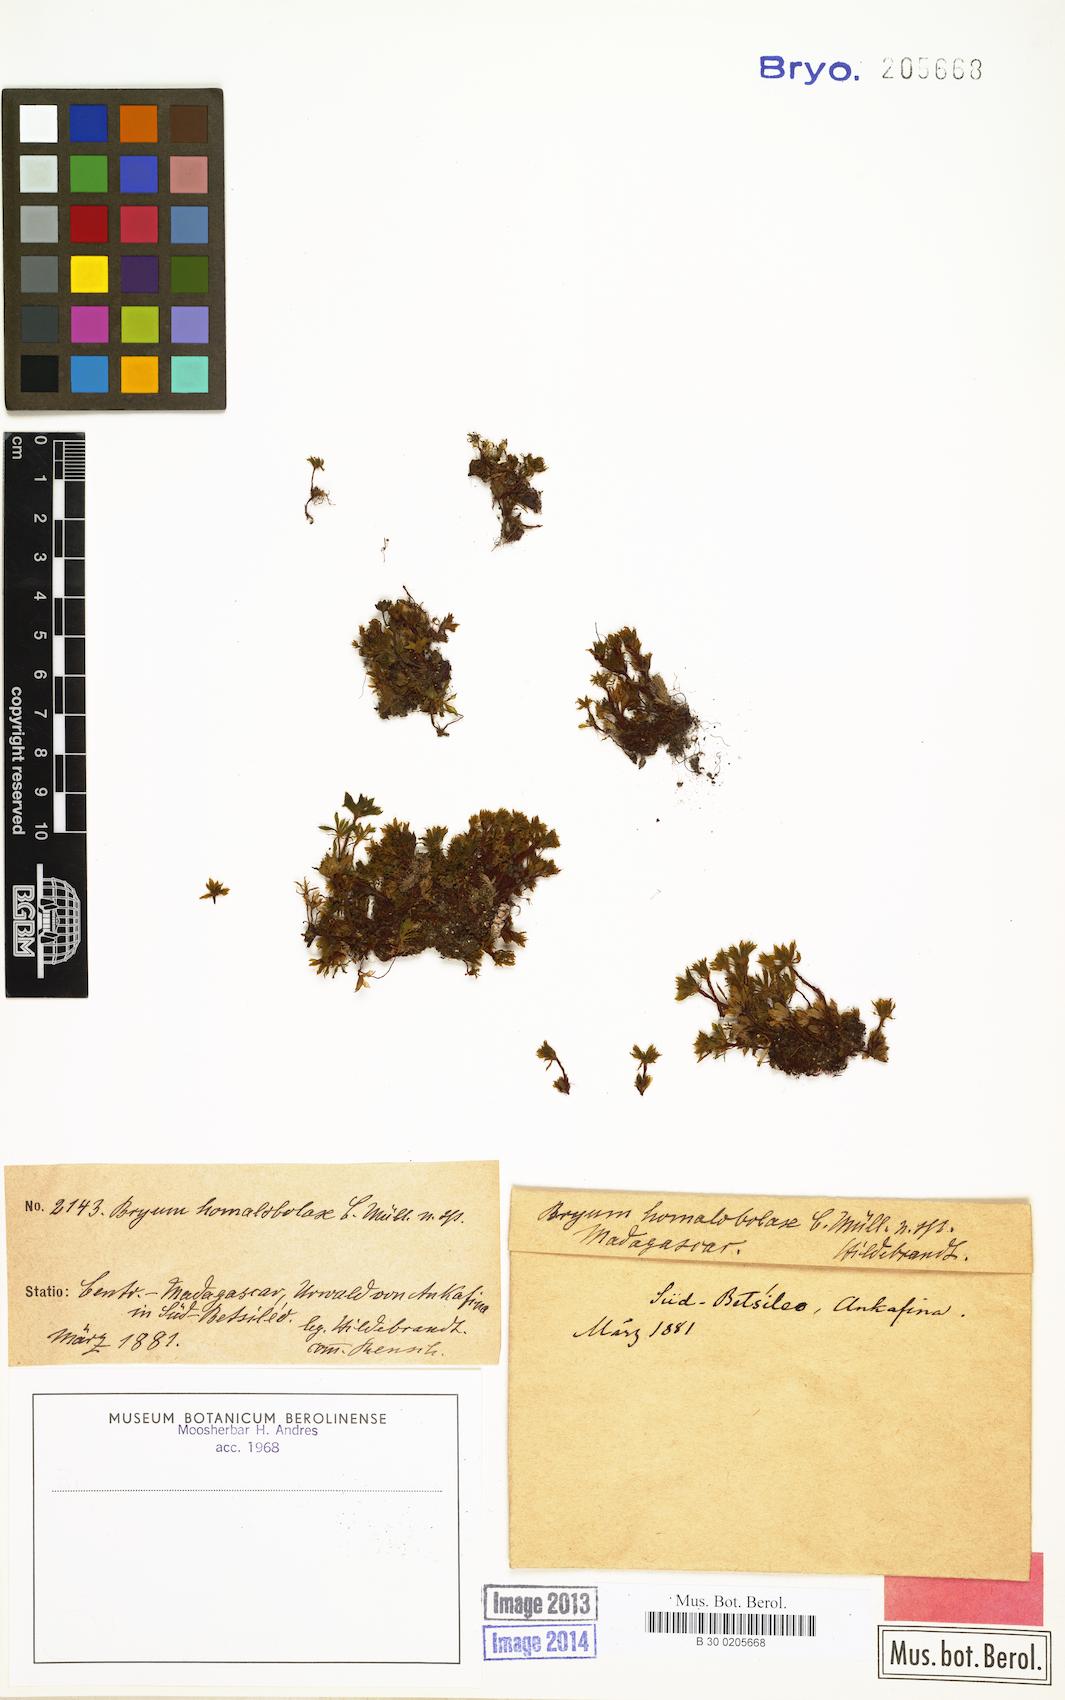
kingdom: Plantae
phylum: Bryophyta
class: Bryopsida
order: Bryales
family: Bryaceae
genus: Rosulabryum
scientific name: Rosulabryum erythrocaulon
